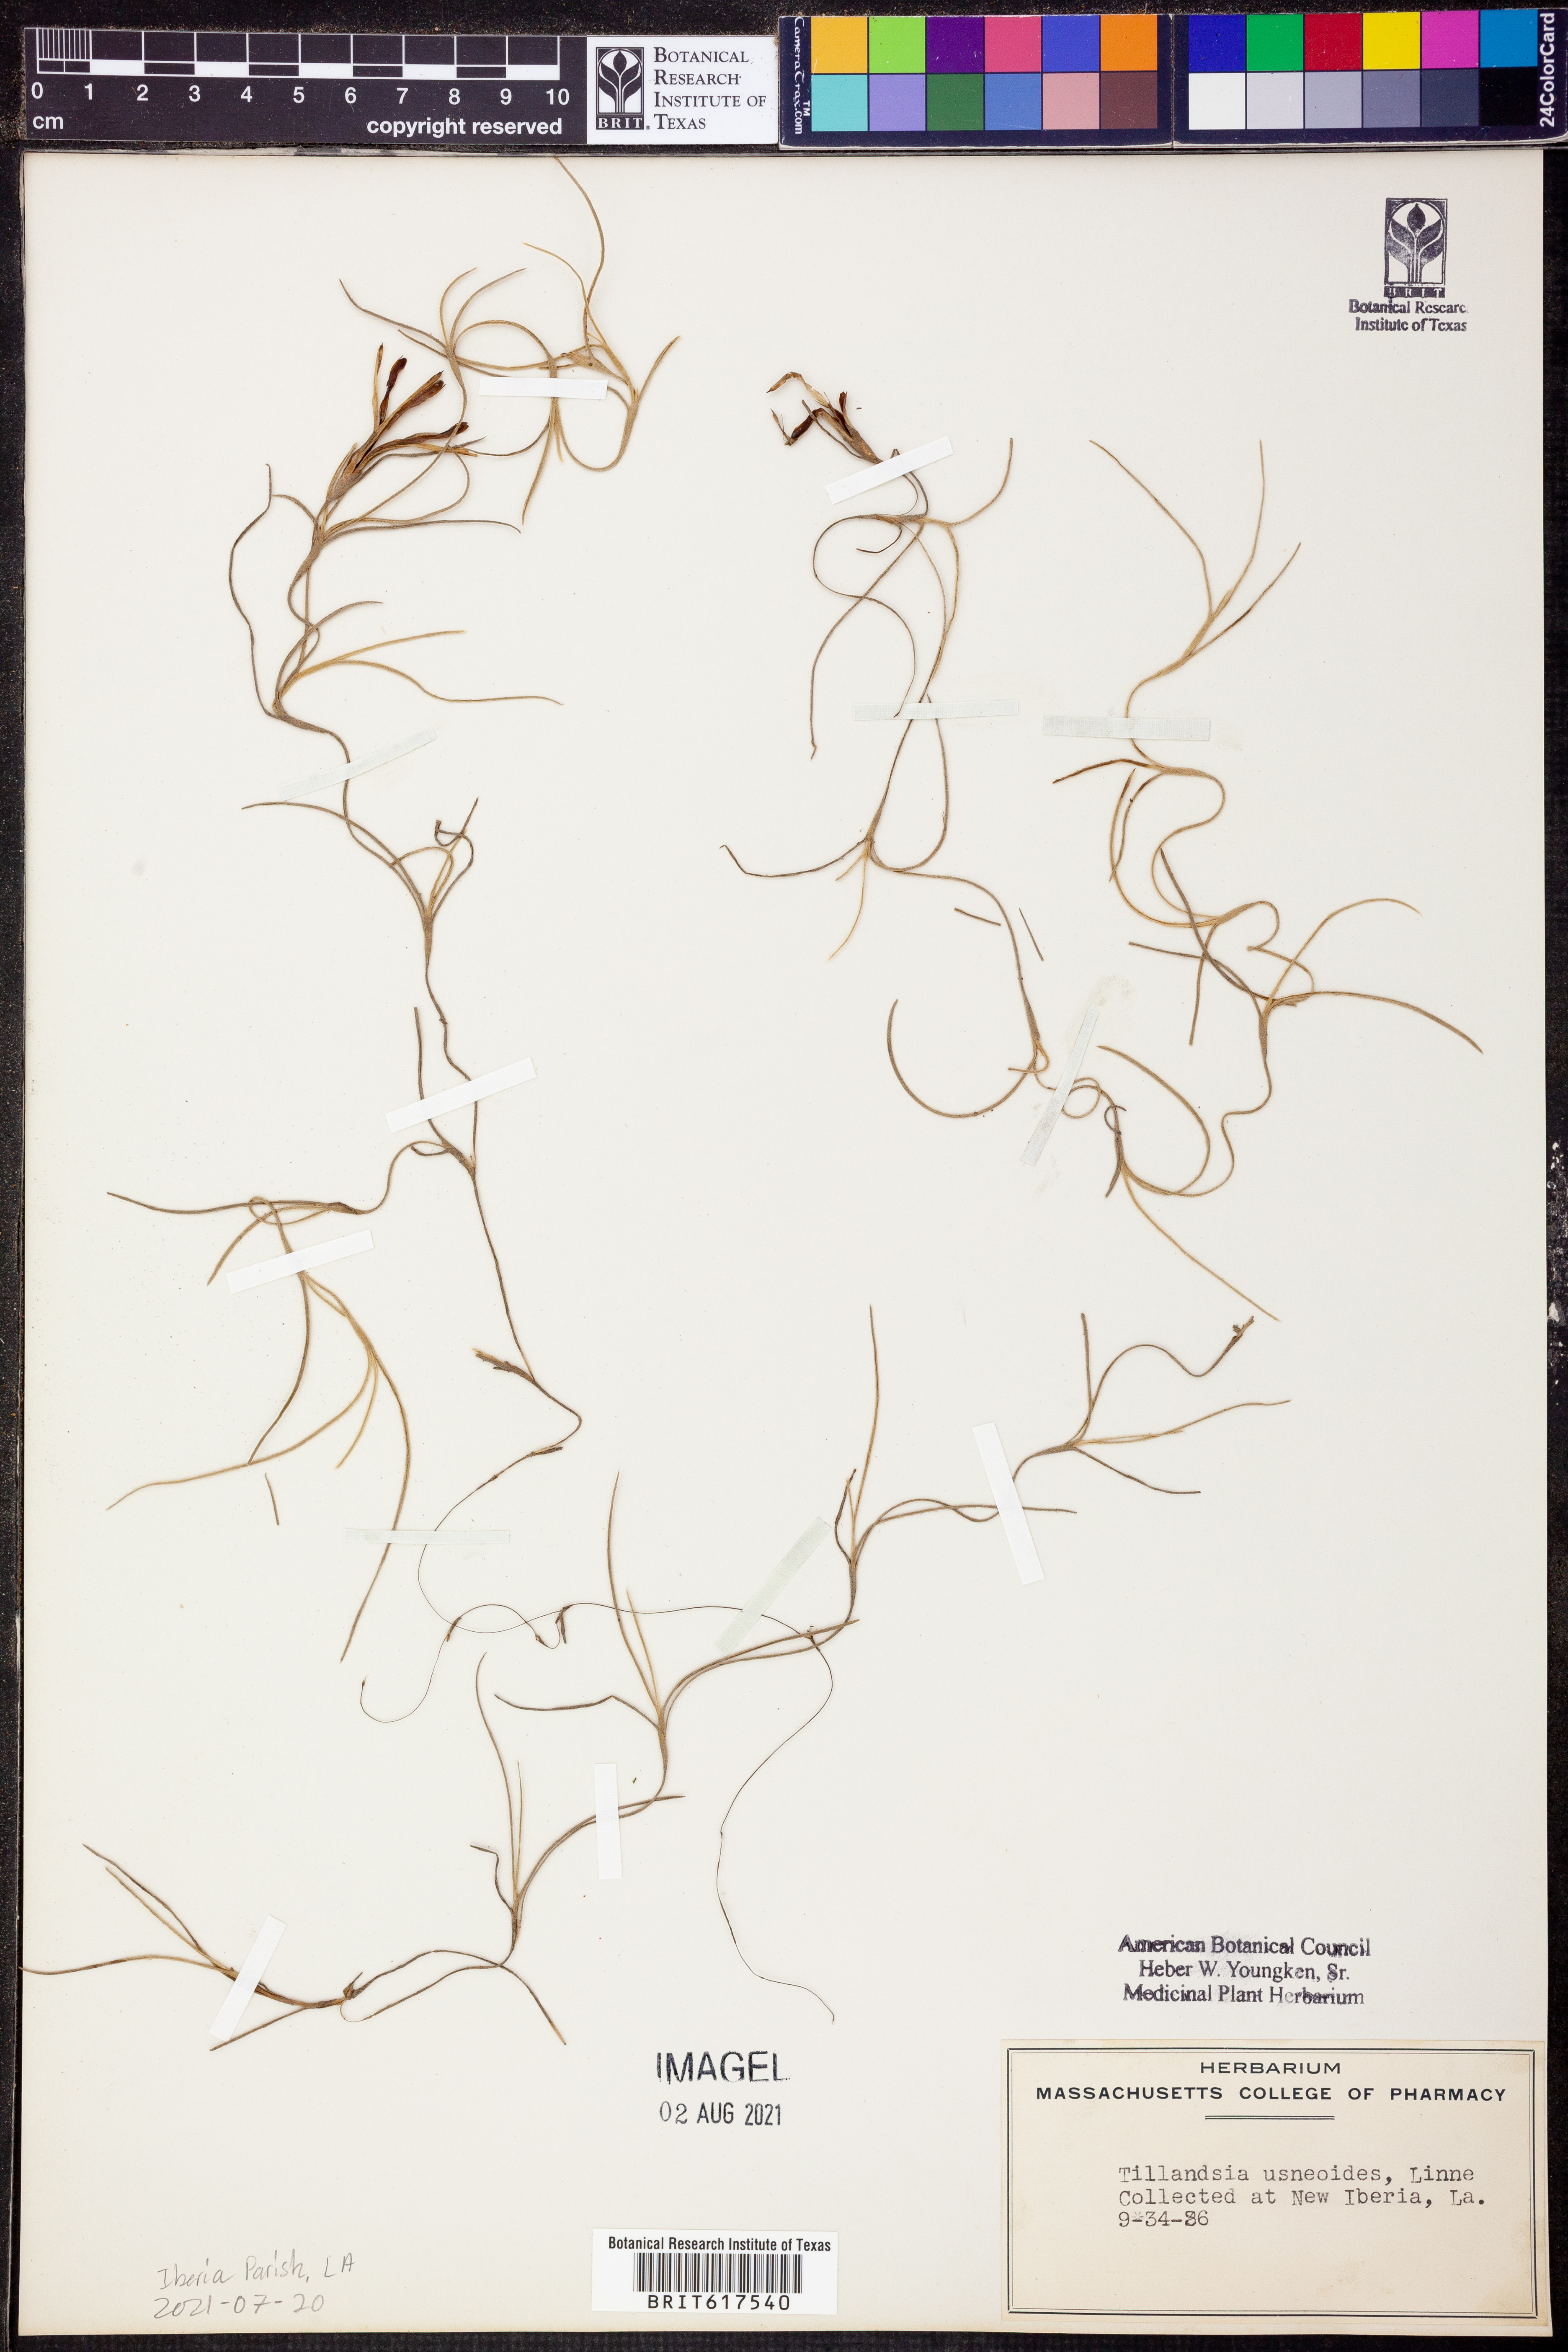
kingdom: Plantae
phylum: Tracheophyta
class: Liliopsida
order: Poales
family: Bromeliaceae
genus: Tillandsia
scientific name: Tillandsia usneoides
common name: Spanish moss
